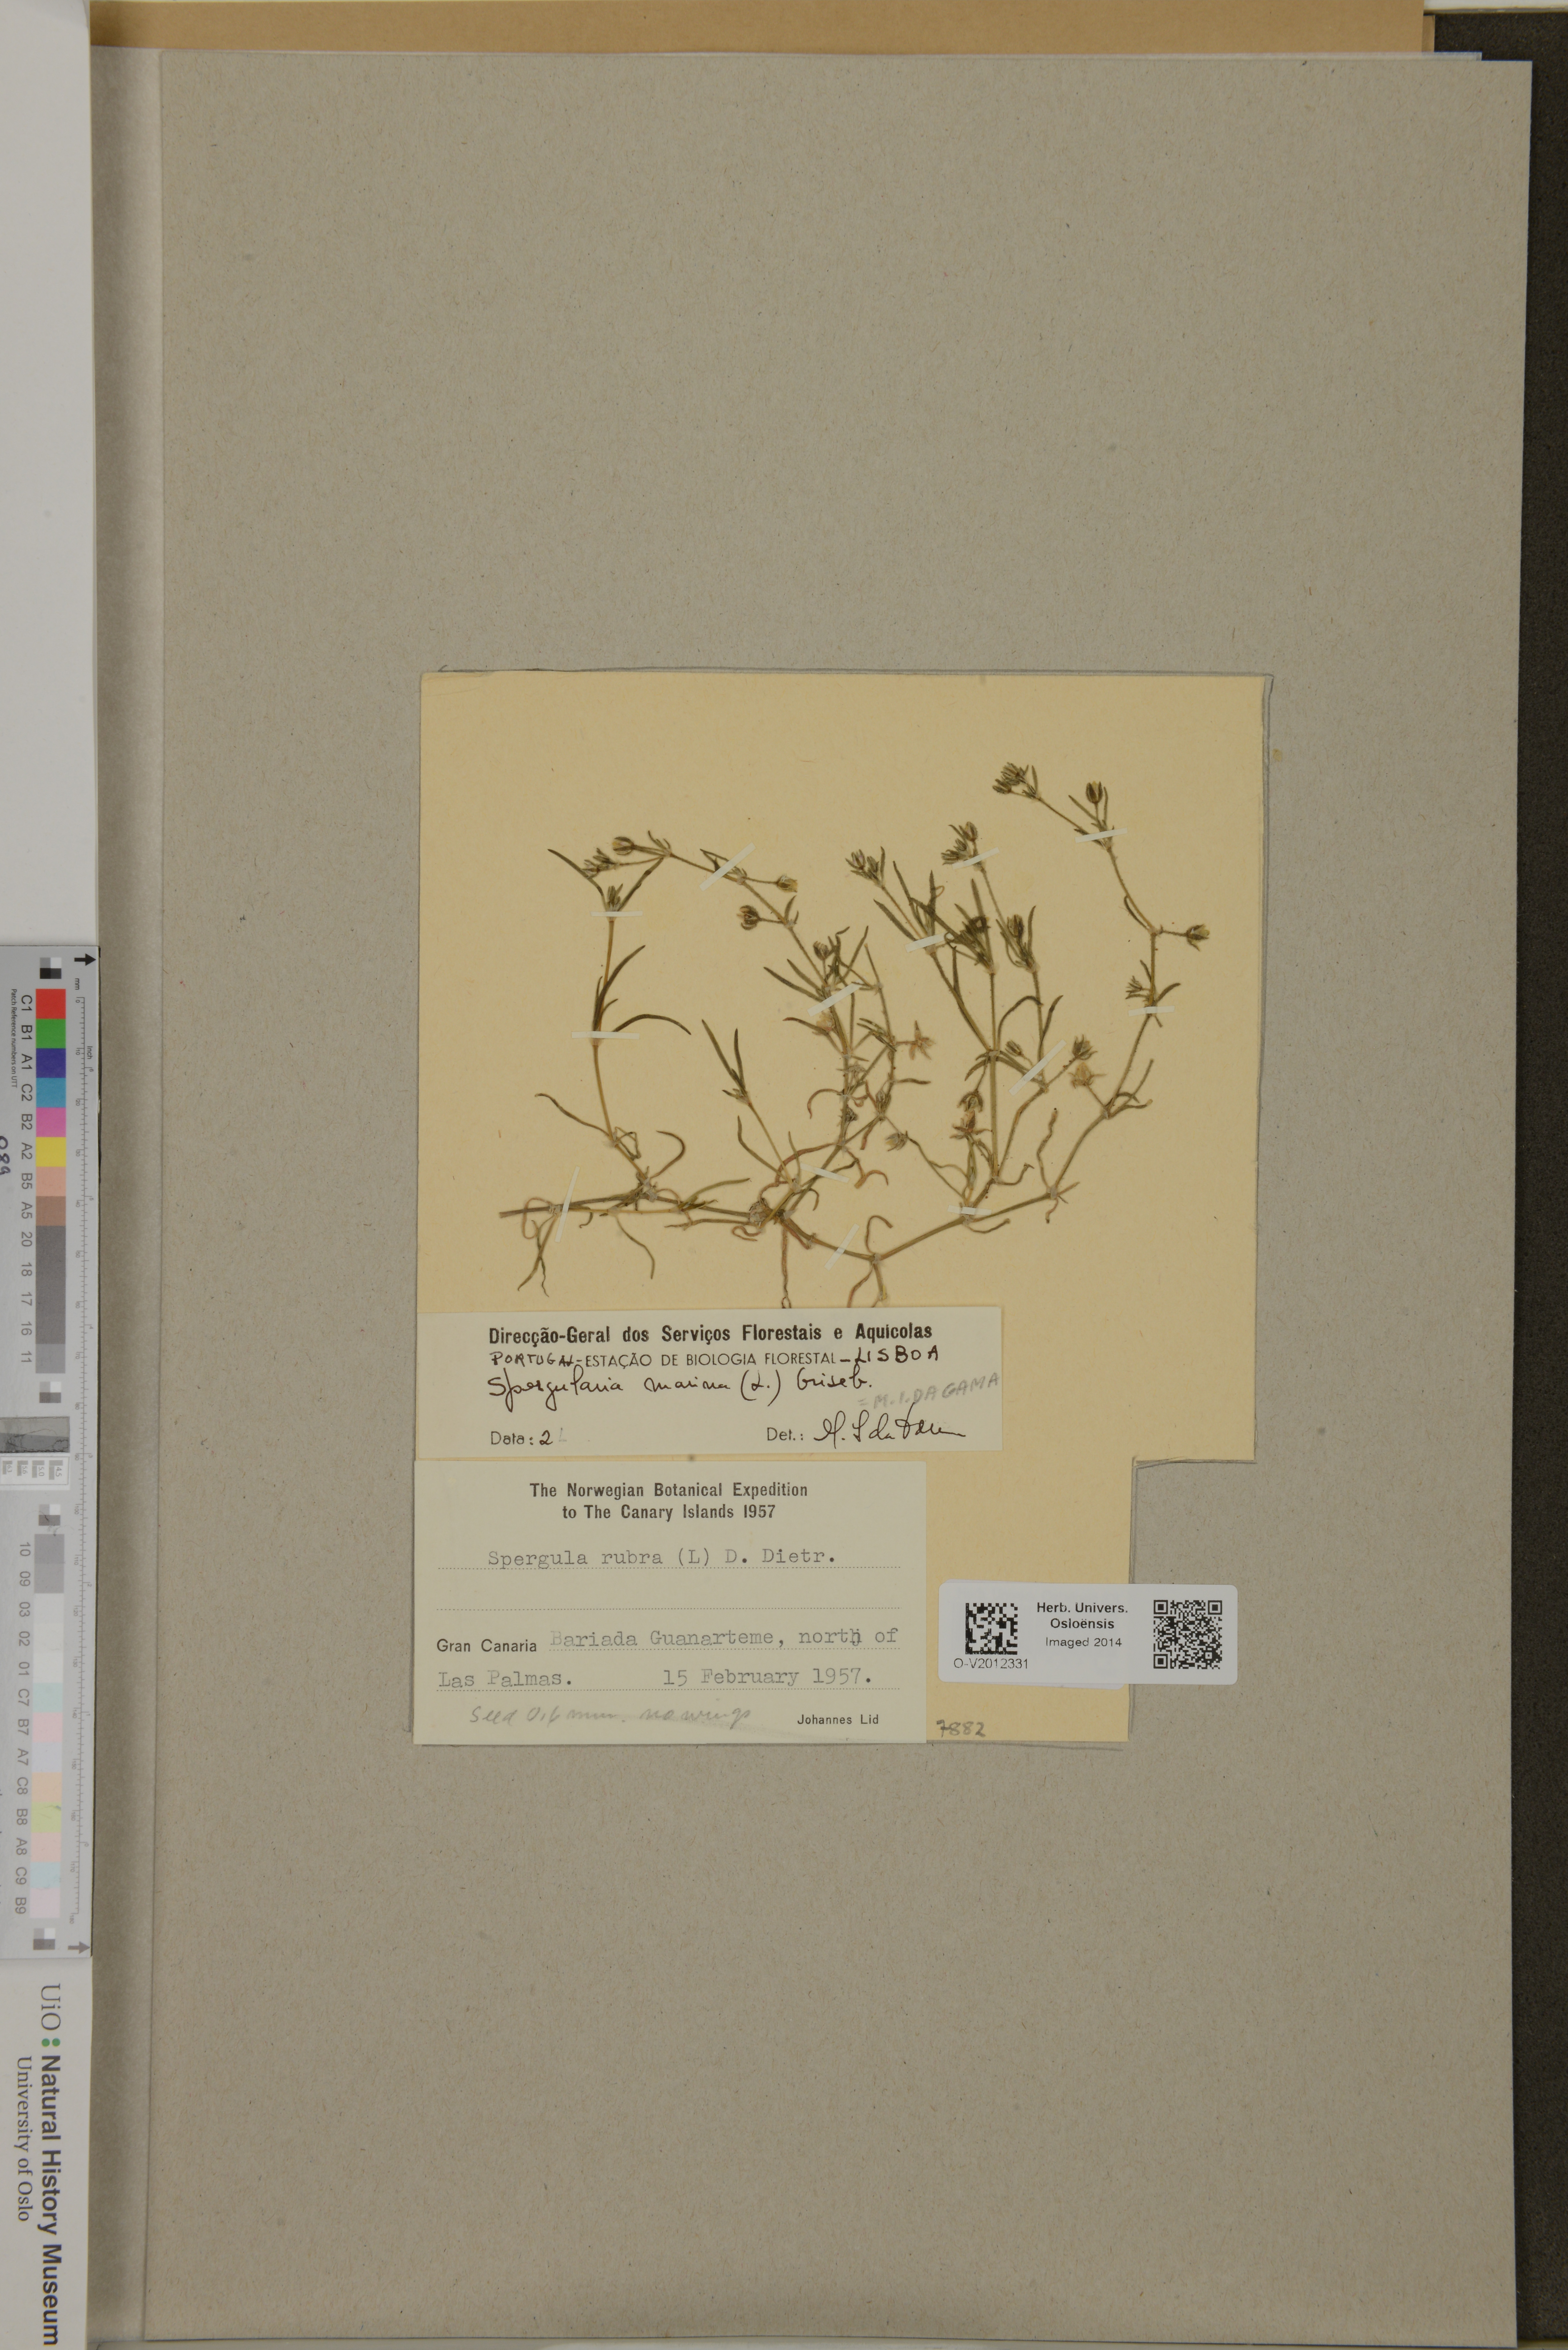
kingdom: Plantae
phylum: Tracheophyta
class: Magnoliopsida
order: Caryophyllales
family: Caryophyllaceae
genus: Spergularia
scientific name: Spergularia marina
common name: Lesser sea-spurrey
